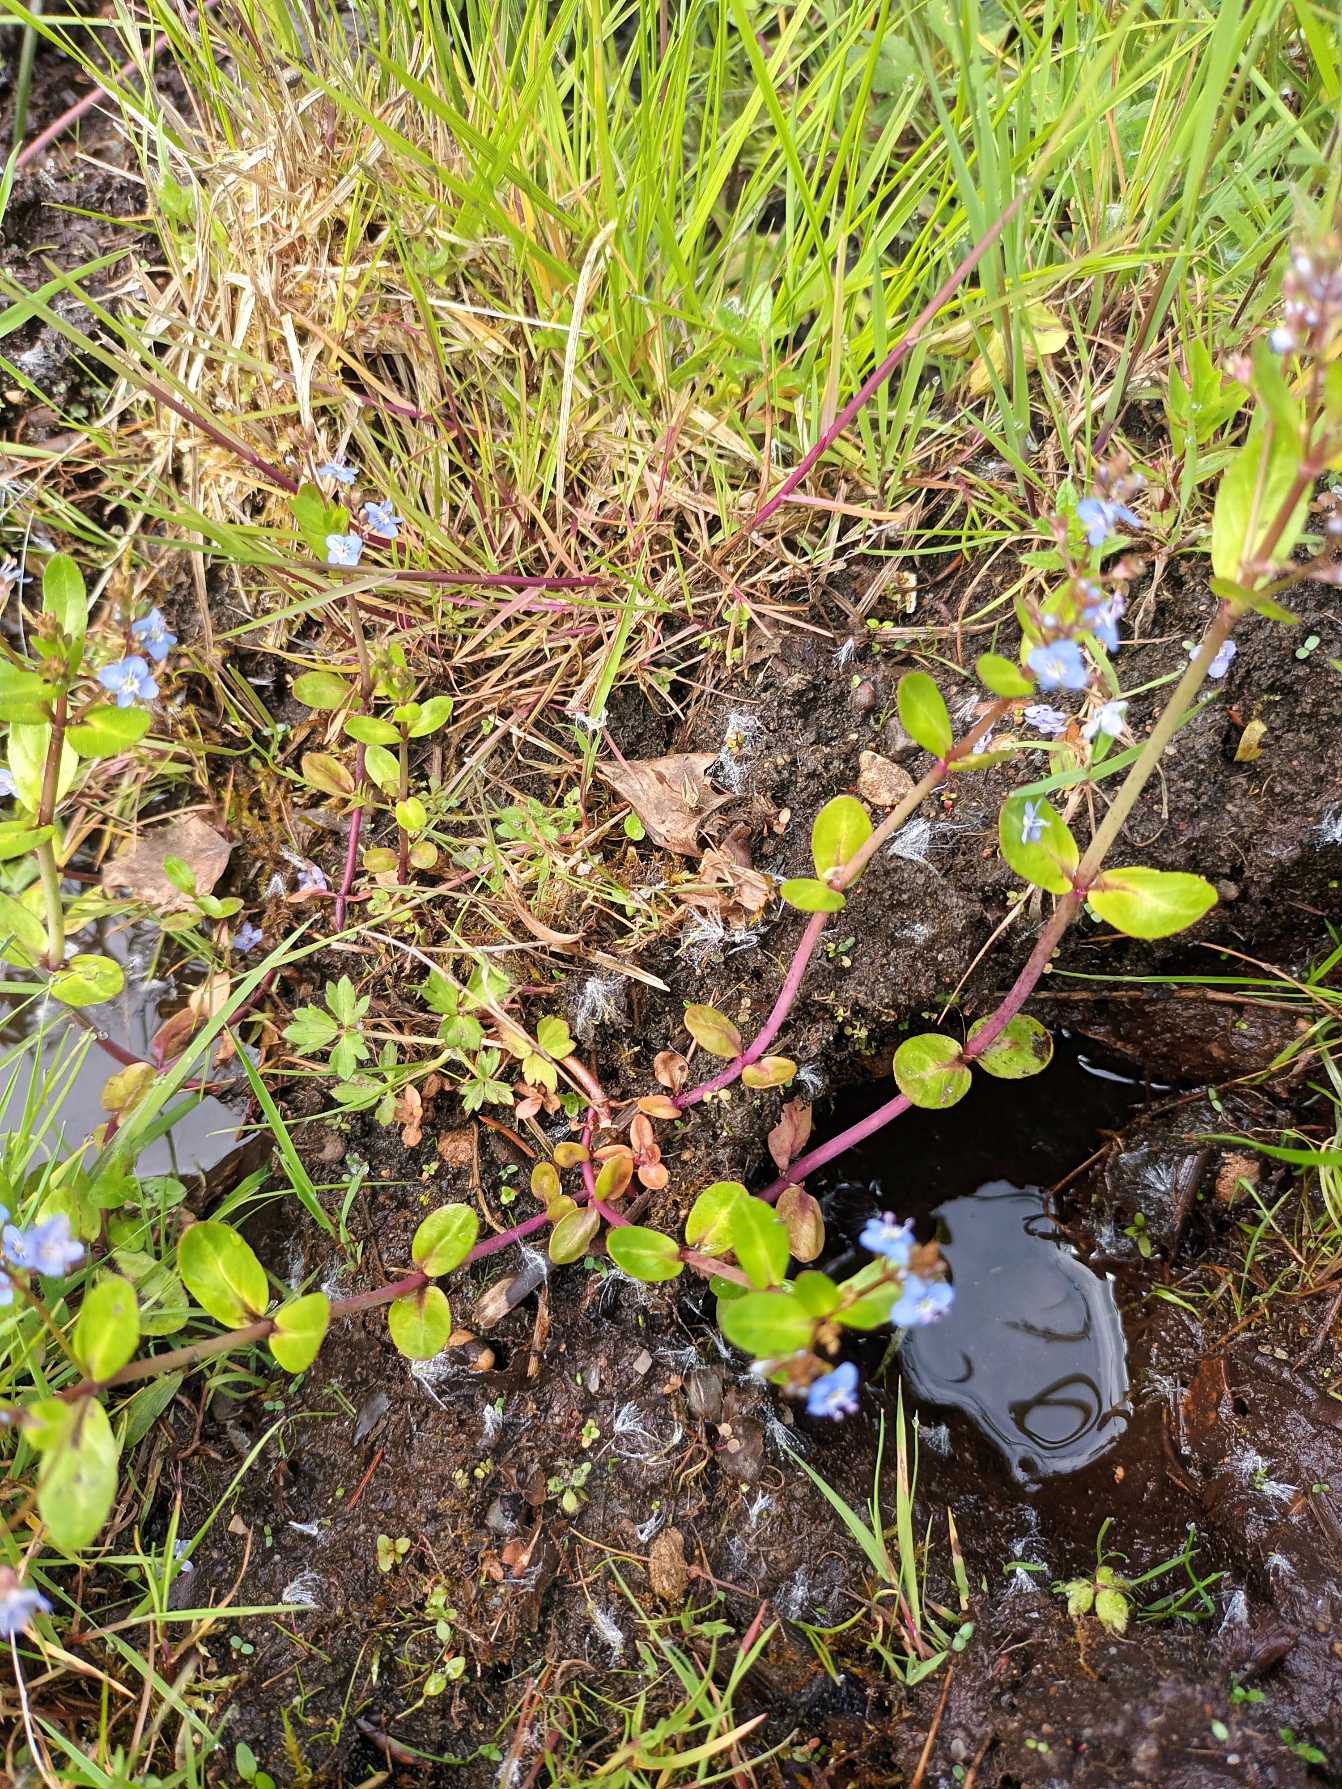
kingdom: Plantae
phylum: Tracheophyta
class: Magnoliopsida
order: Lamiales
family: Plantaginaceae
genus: Veronica
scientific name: Veronica beccabunga
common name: Tykbladet ærenpris
